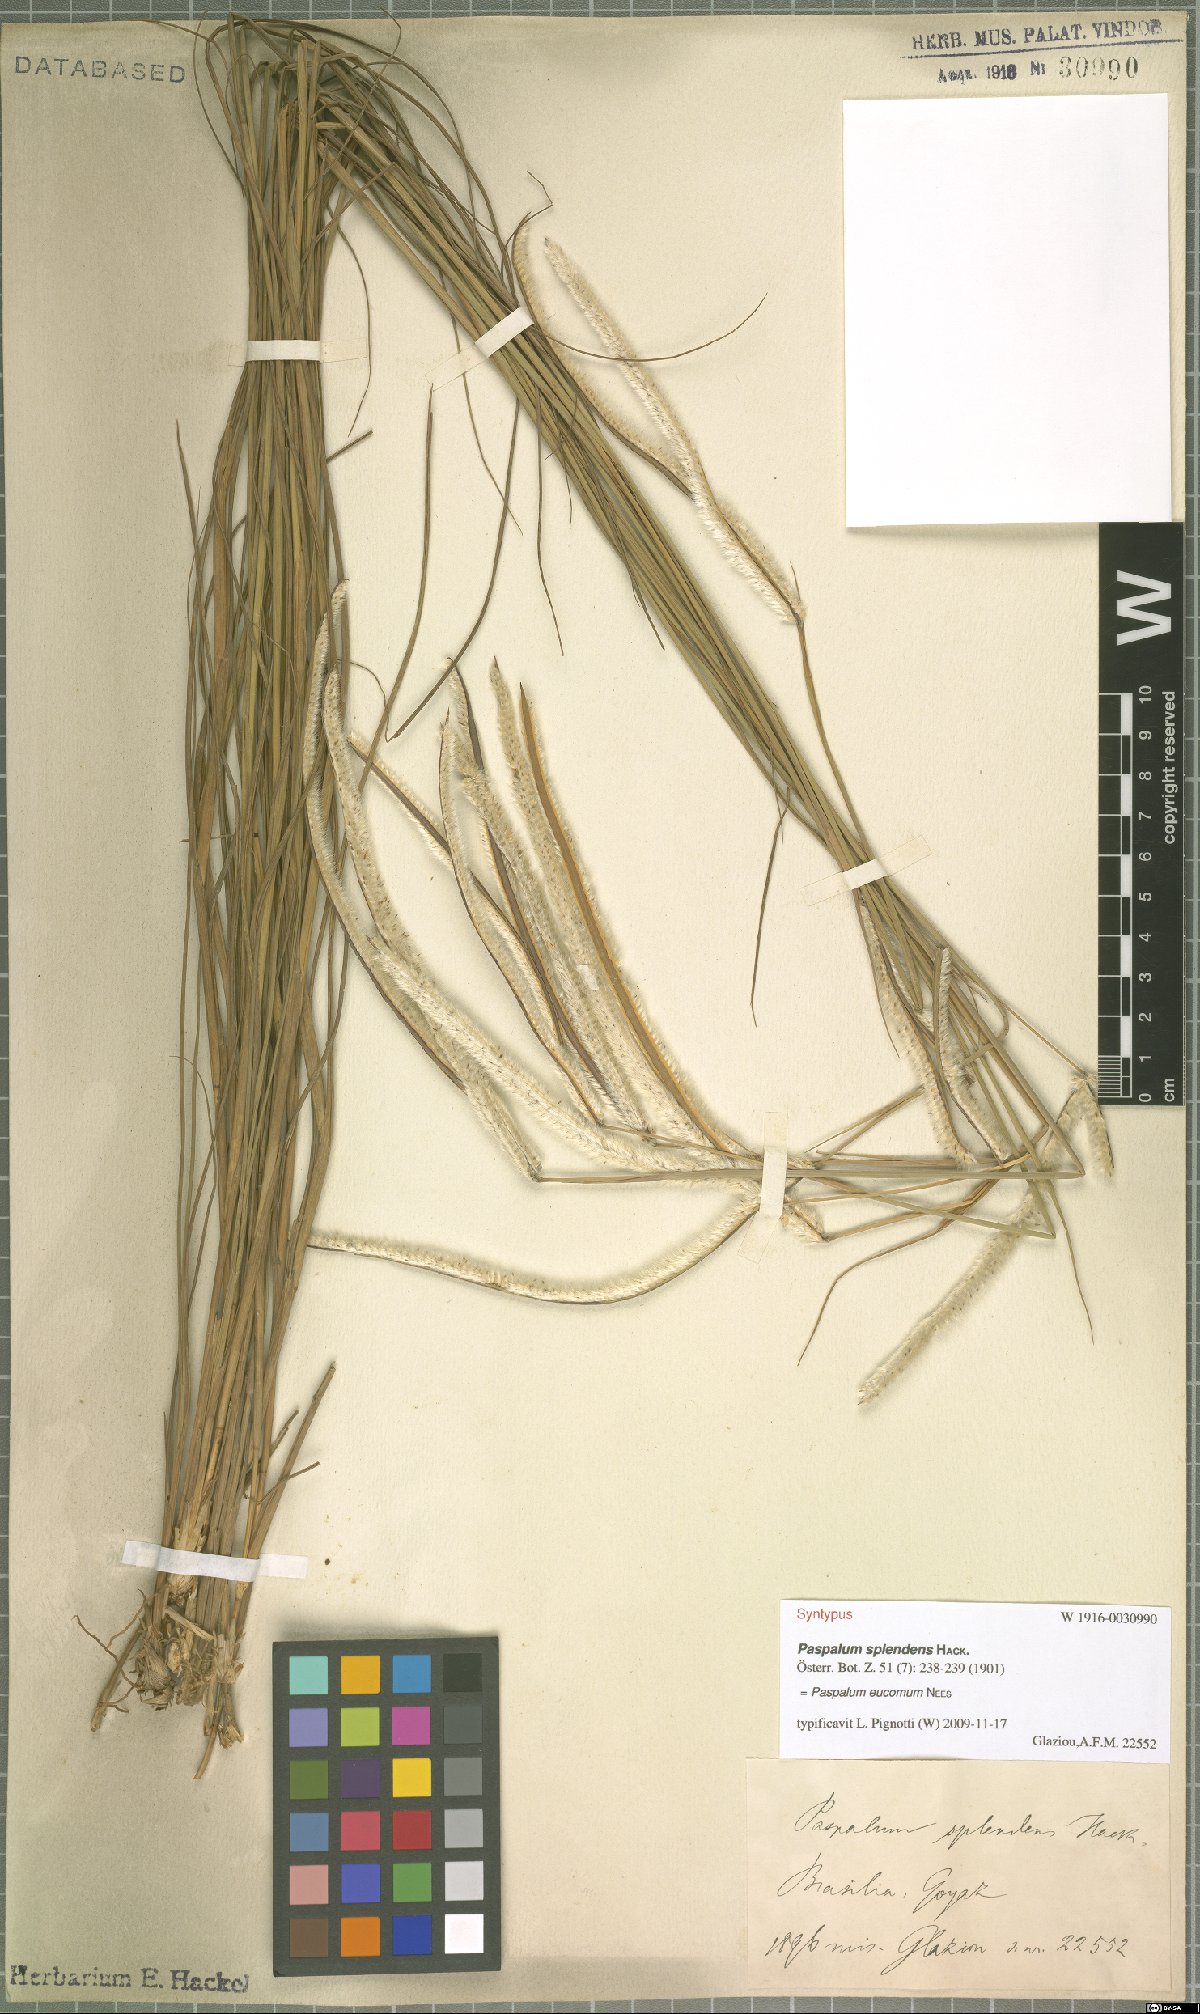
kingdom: Plantae
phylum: Tracheophyta
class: Liliopsida
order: Poales
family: Poaceae
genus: Paspalum
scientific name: Paspalum eucomum
